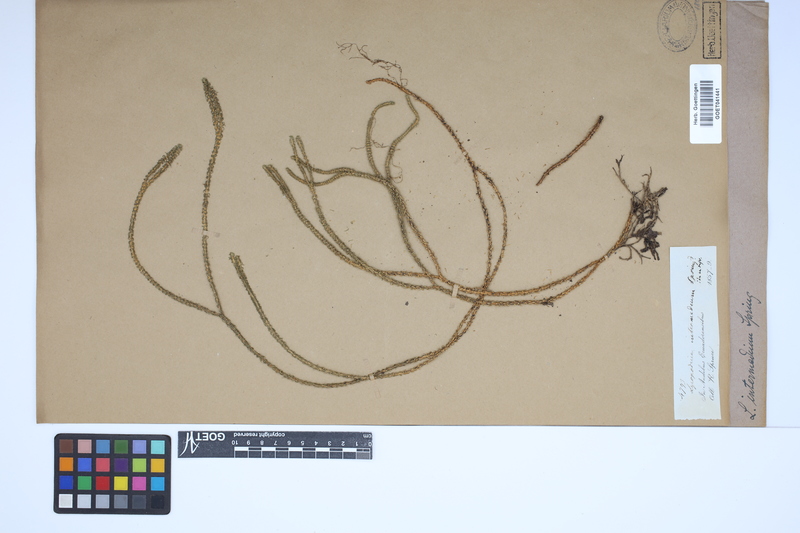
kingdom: Plantae
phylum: Tracheophyta
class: Lycopodiopsida
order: Lycopodiales
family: Lycopodiaceae
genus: Phlegmariurus
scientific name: Phlegmariurus intermedius
